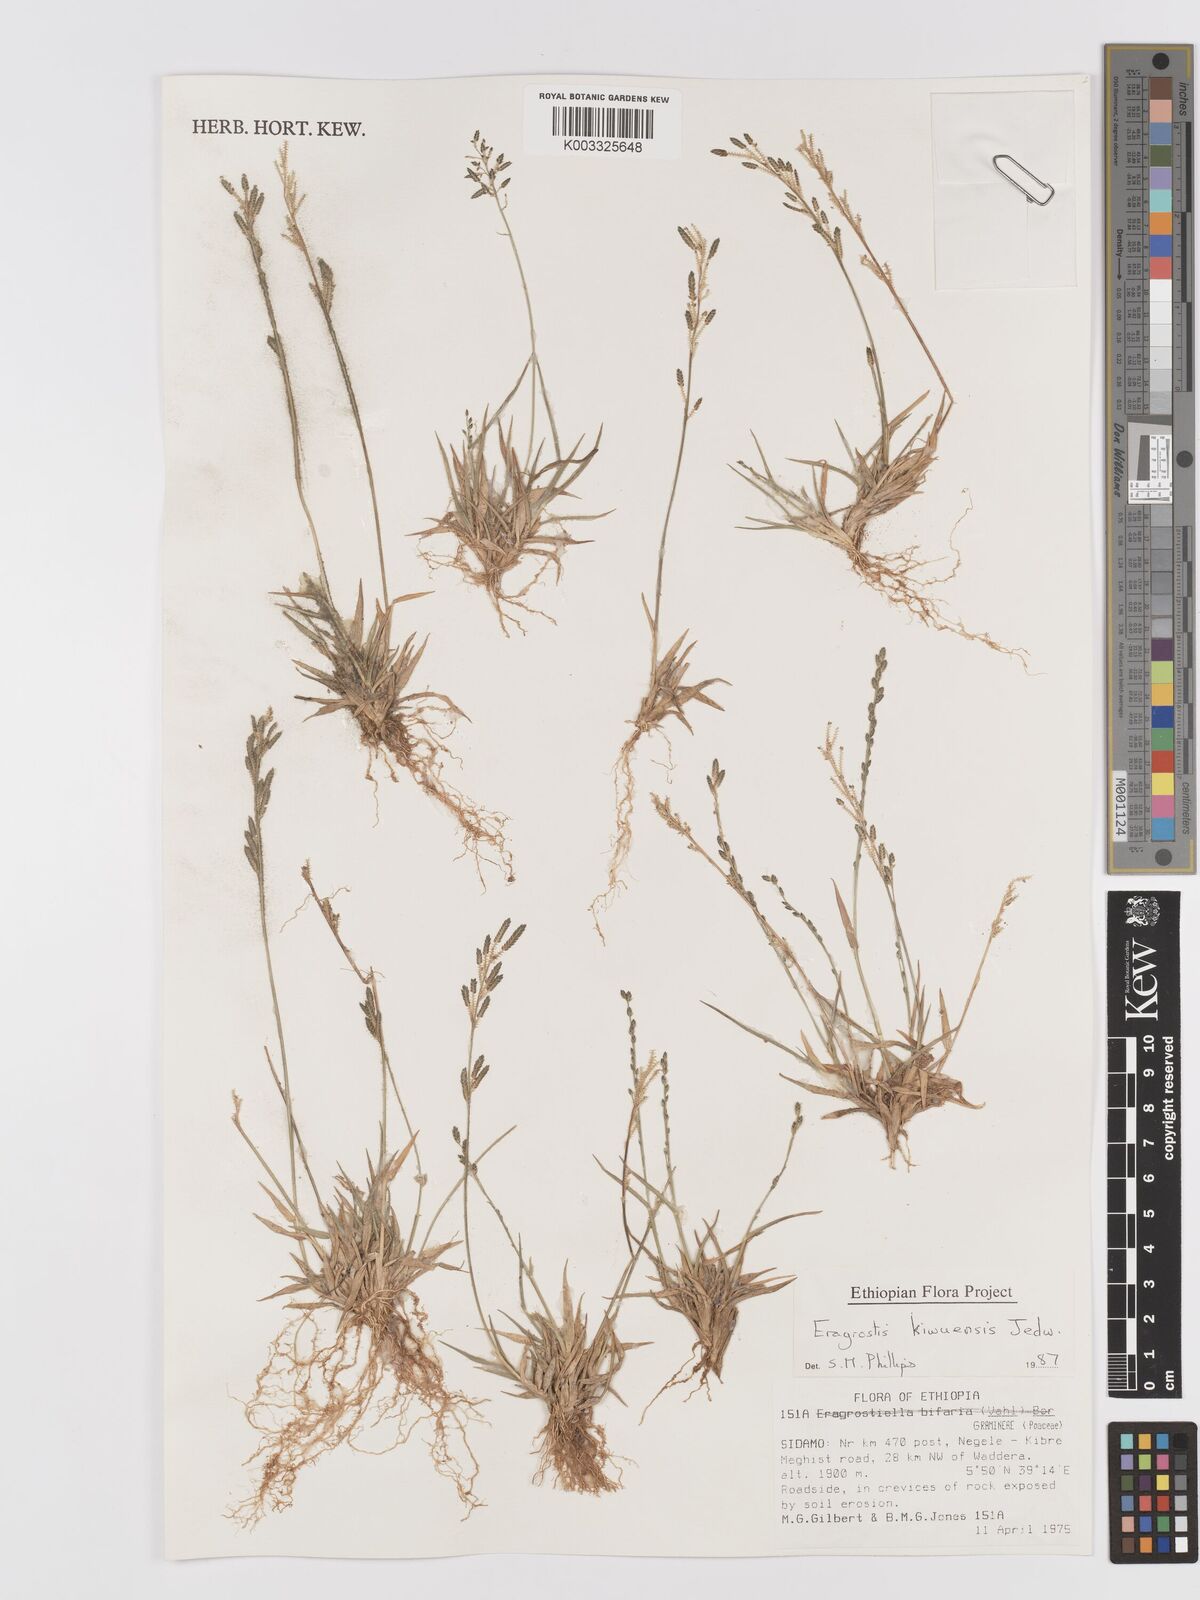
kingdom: Plantae
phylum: Tracheophyta
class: Liliopsida
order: Poales
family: Poaceae
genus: Eragrostis
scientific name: Eragrostis schweinfurthii
